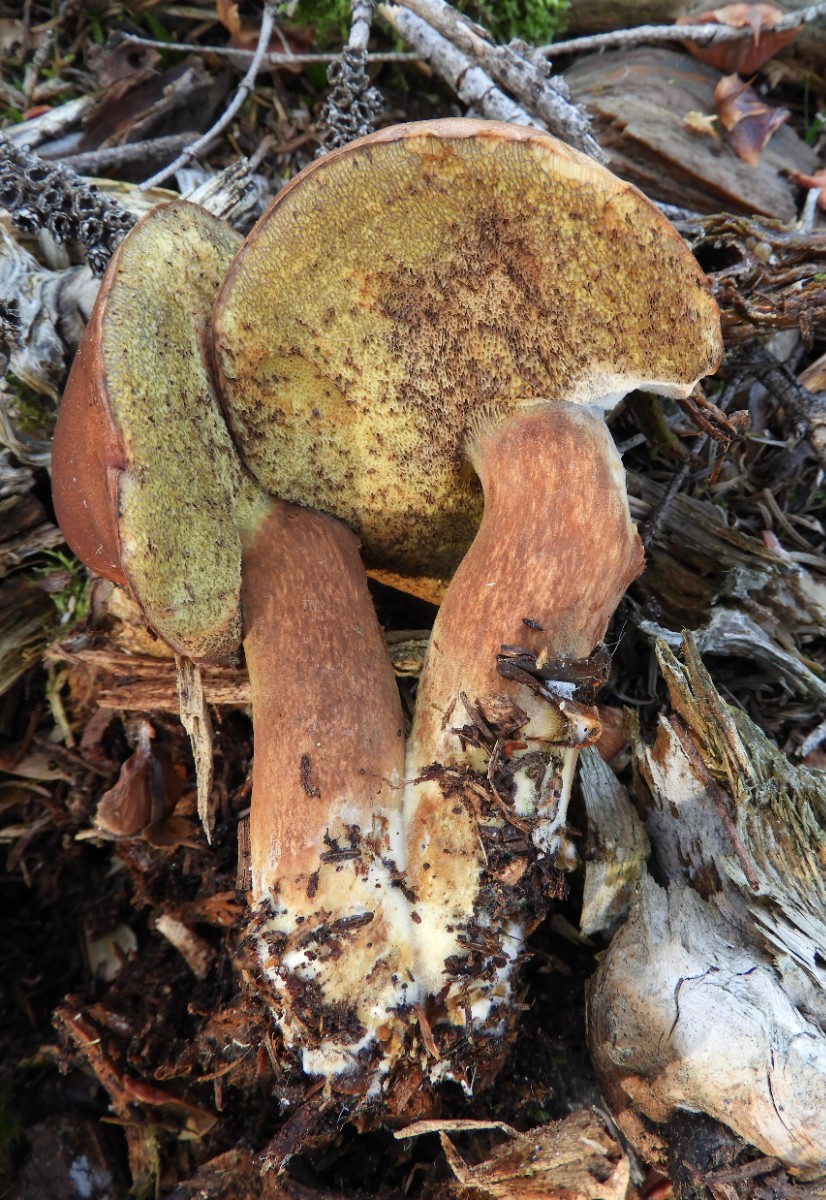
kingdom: Fungi
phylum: Basidiomycota
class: Agaricomycetes
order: Boletales
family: Boletaceae
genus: Imleria
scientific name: Imleria badia
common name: brunstokket rørhat
